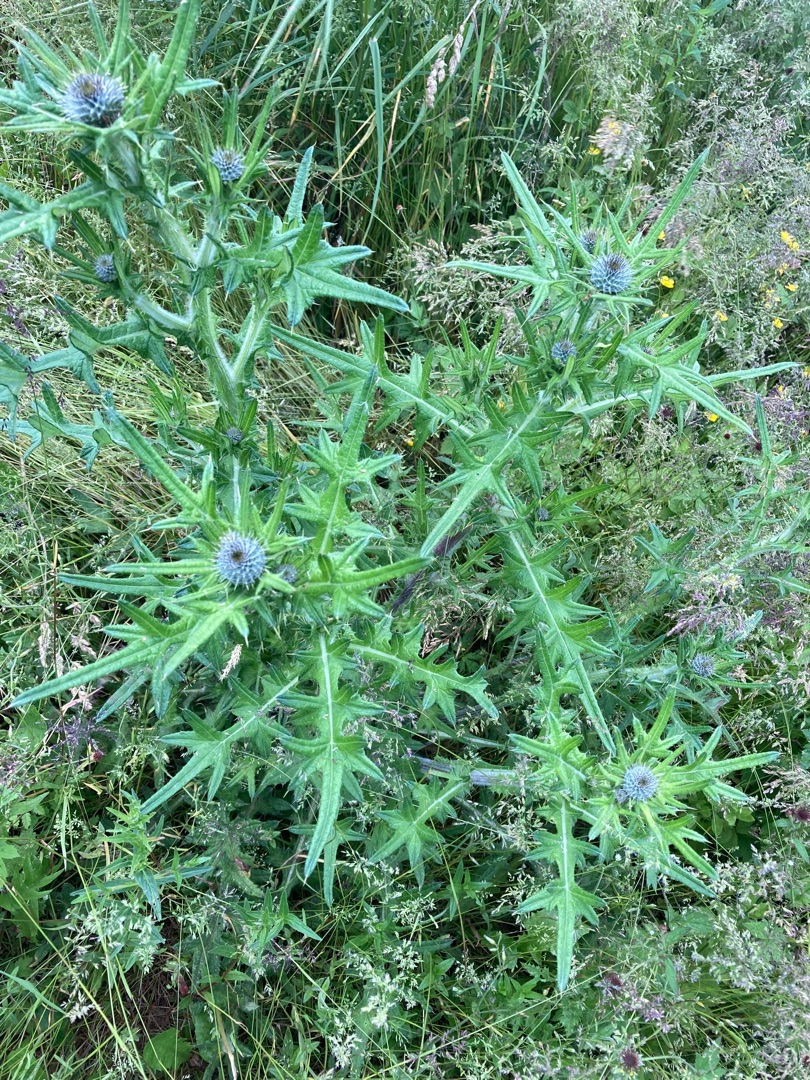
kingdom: Plantae
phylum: Tracheophyta
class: Magnoliopsida
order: Asterales
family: Asteraceae
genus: Cirsium
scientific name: Cirsium vulgare
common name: Horse-tidsel
